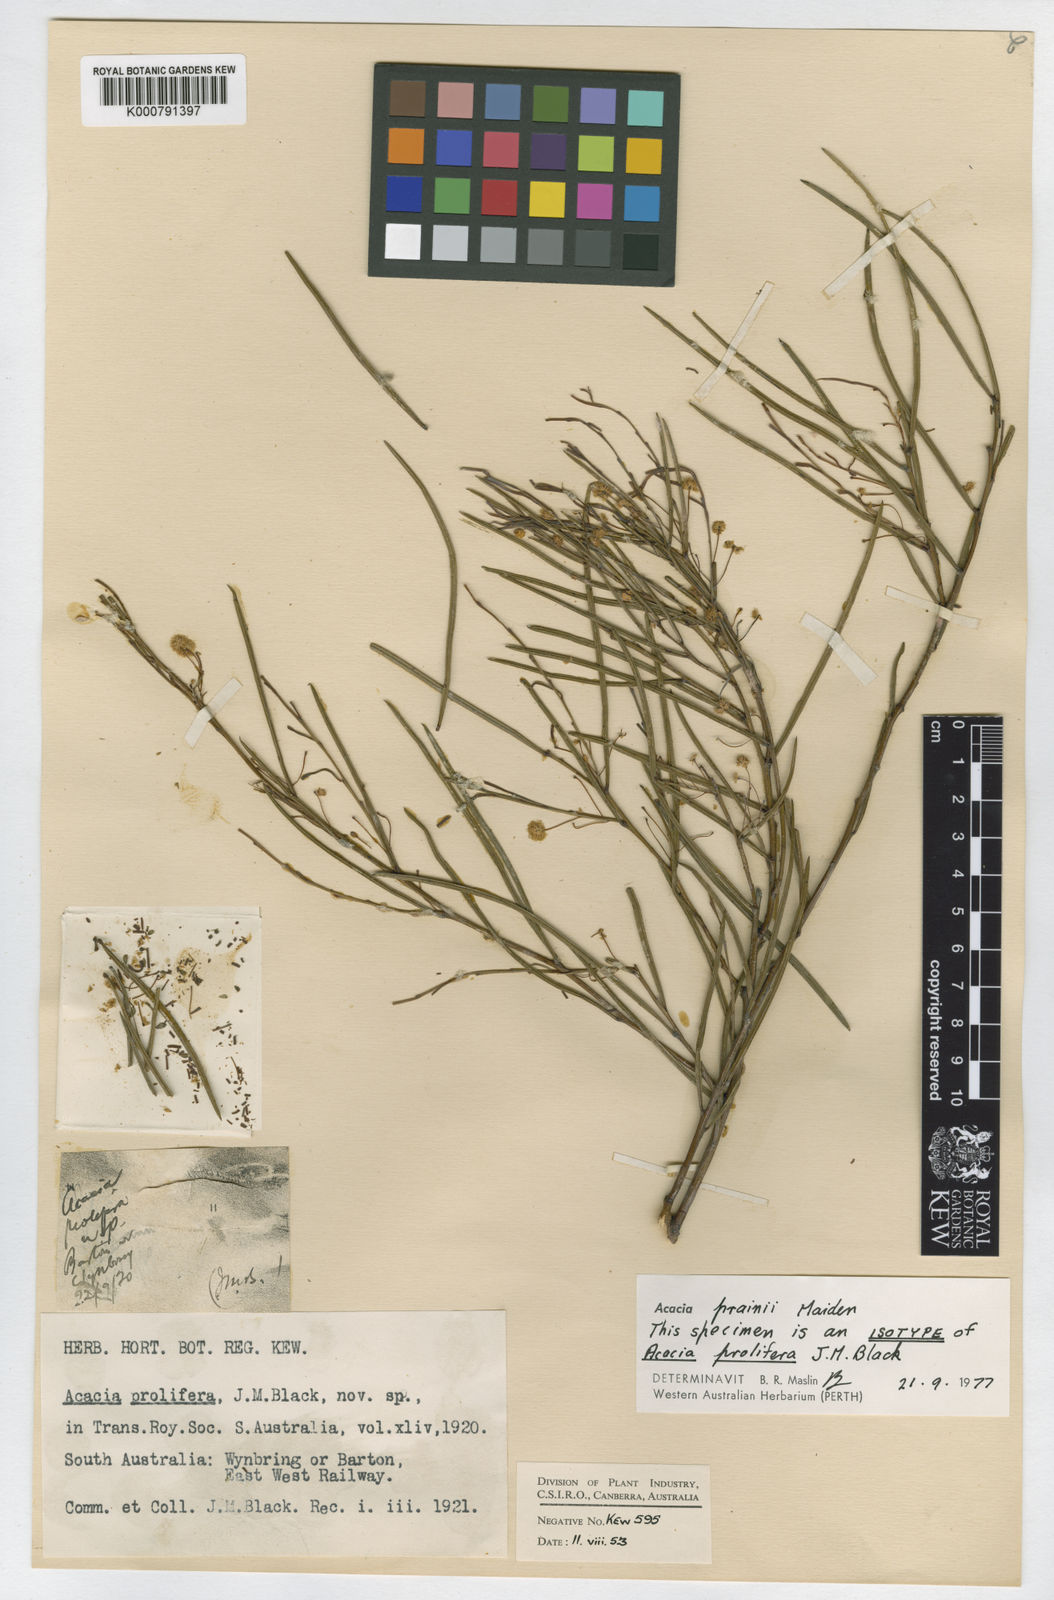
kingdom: Plantae
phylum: Tracheophyta
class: Magnoliopsida
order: Fabales
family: Fabaceae
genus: Acacia
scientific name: Acacia prainii
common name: Prain's wattle
